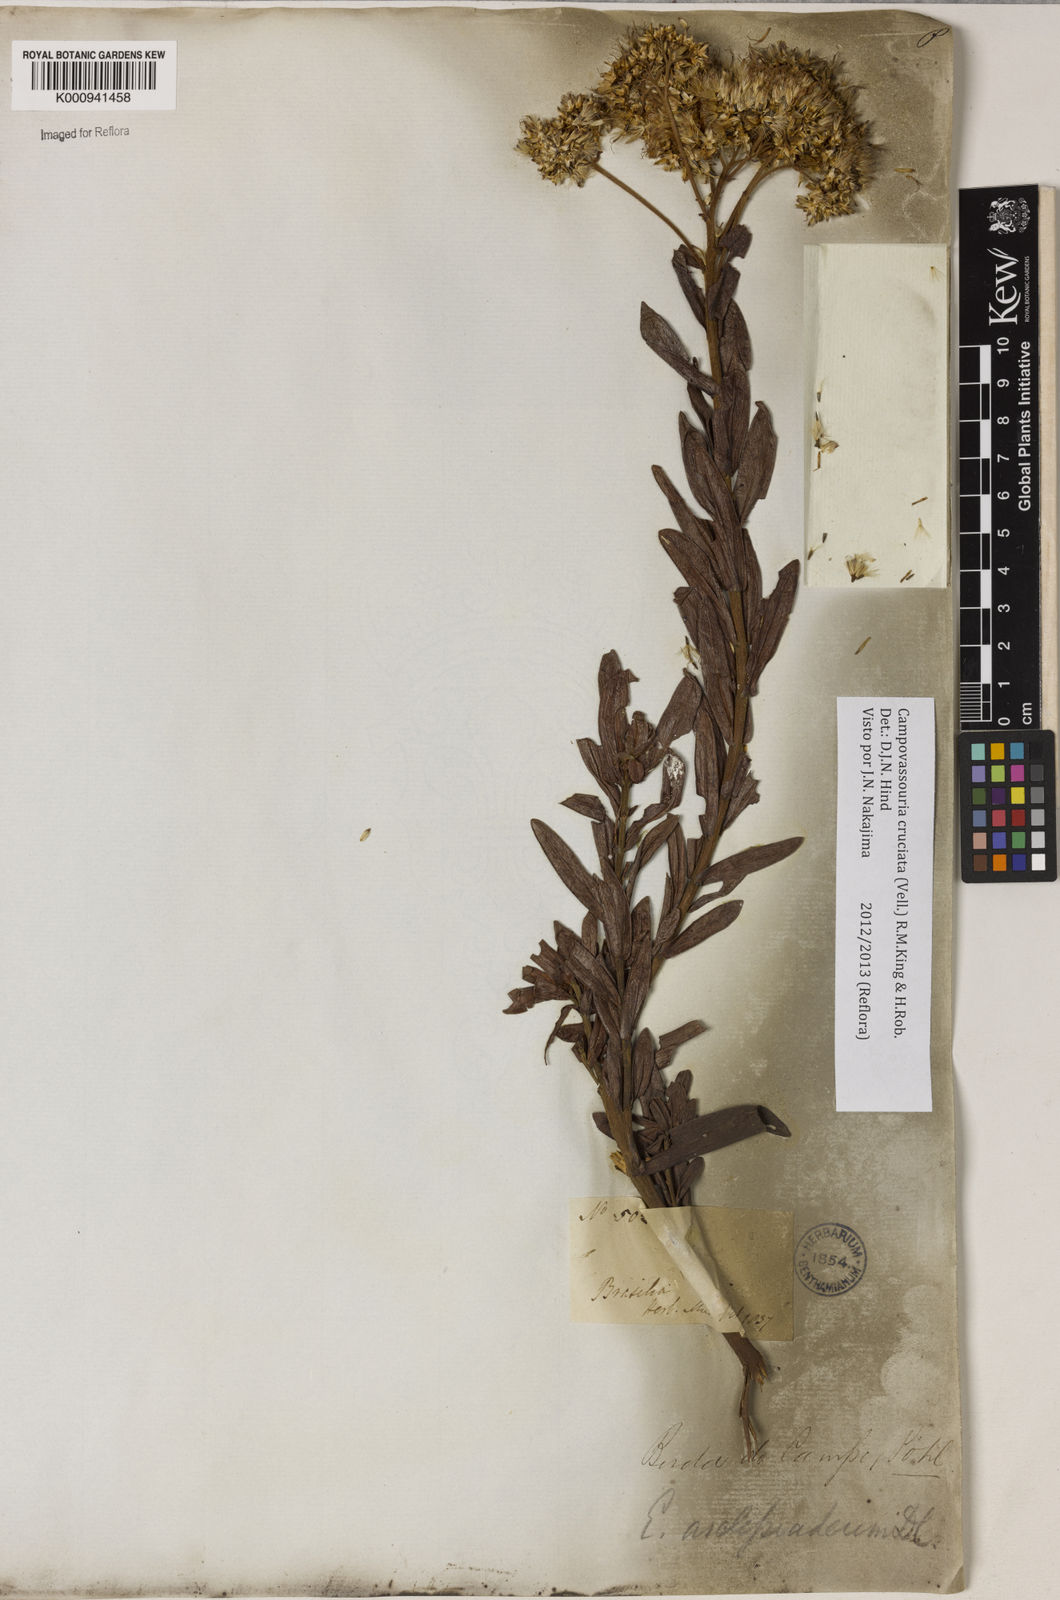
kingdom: Plantae
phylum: Tracheophyta
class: Magnoliopsida
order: Asterales
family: Asteraceae
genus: Campovassouria
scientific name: Campovassouria cruciata
